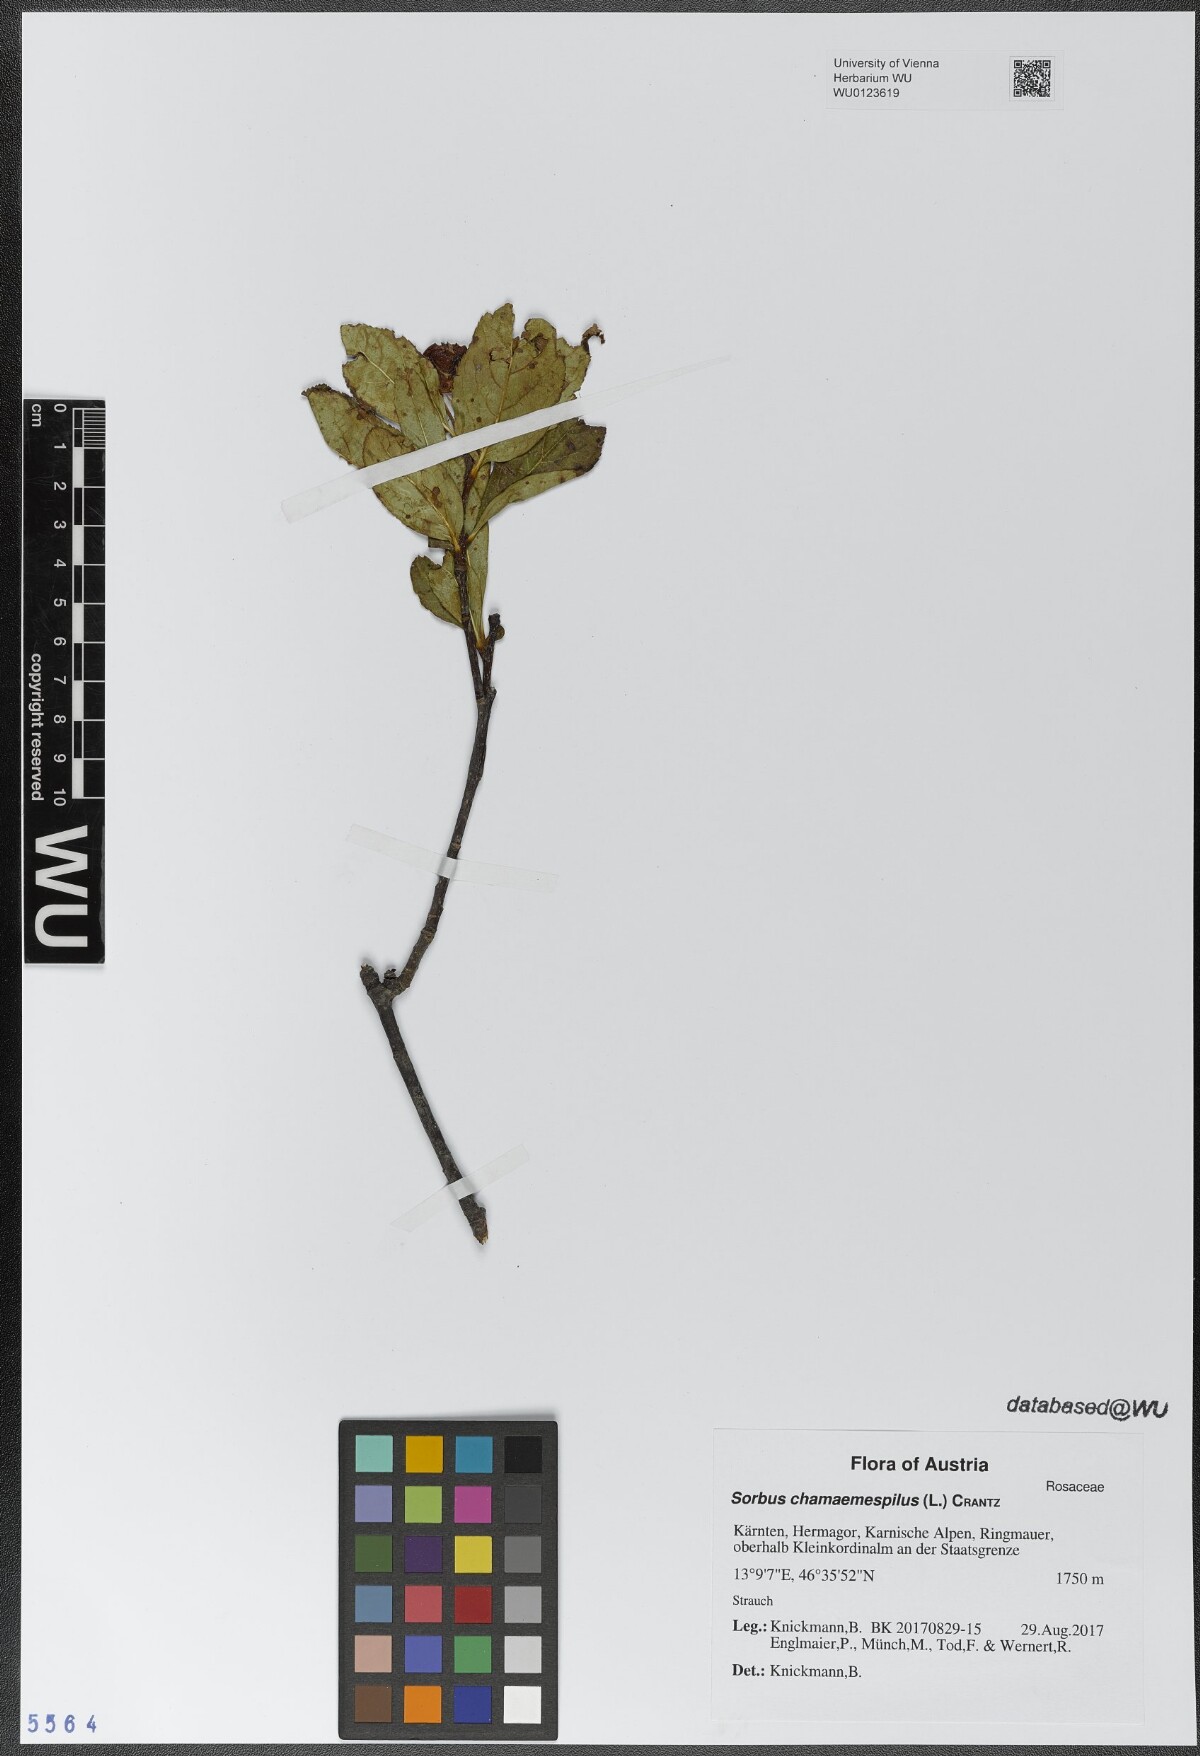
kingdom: Plantae
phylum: Tracheophyta
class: Magnoliopsida
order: Rosales
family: Rosaceae
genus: Chamaemespilus
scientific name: Chamaemespilus alpina
